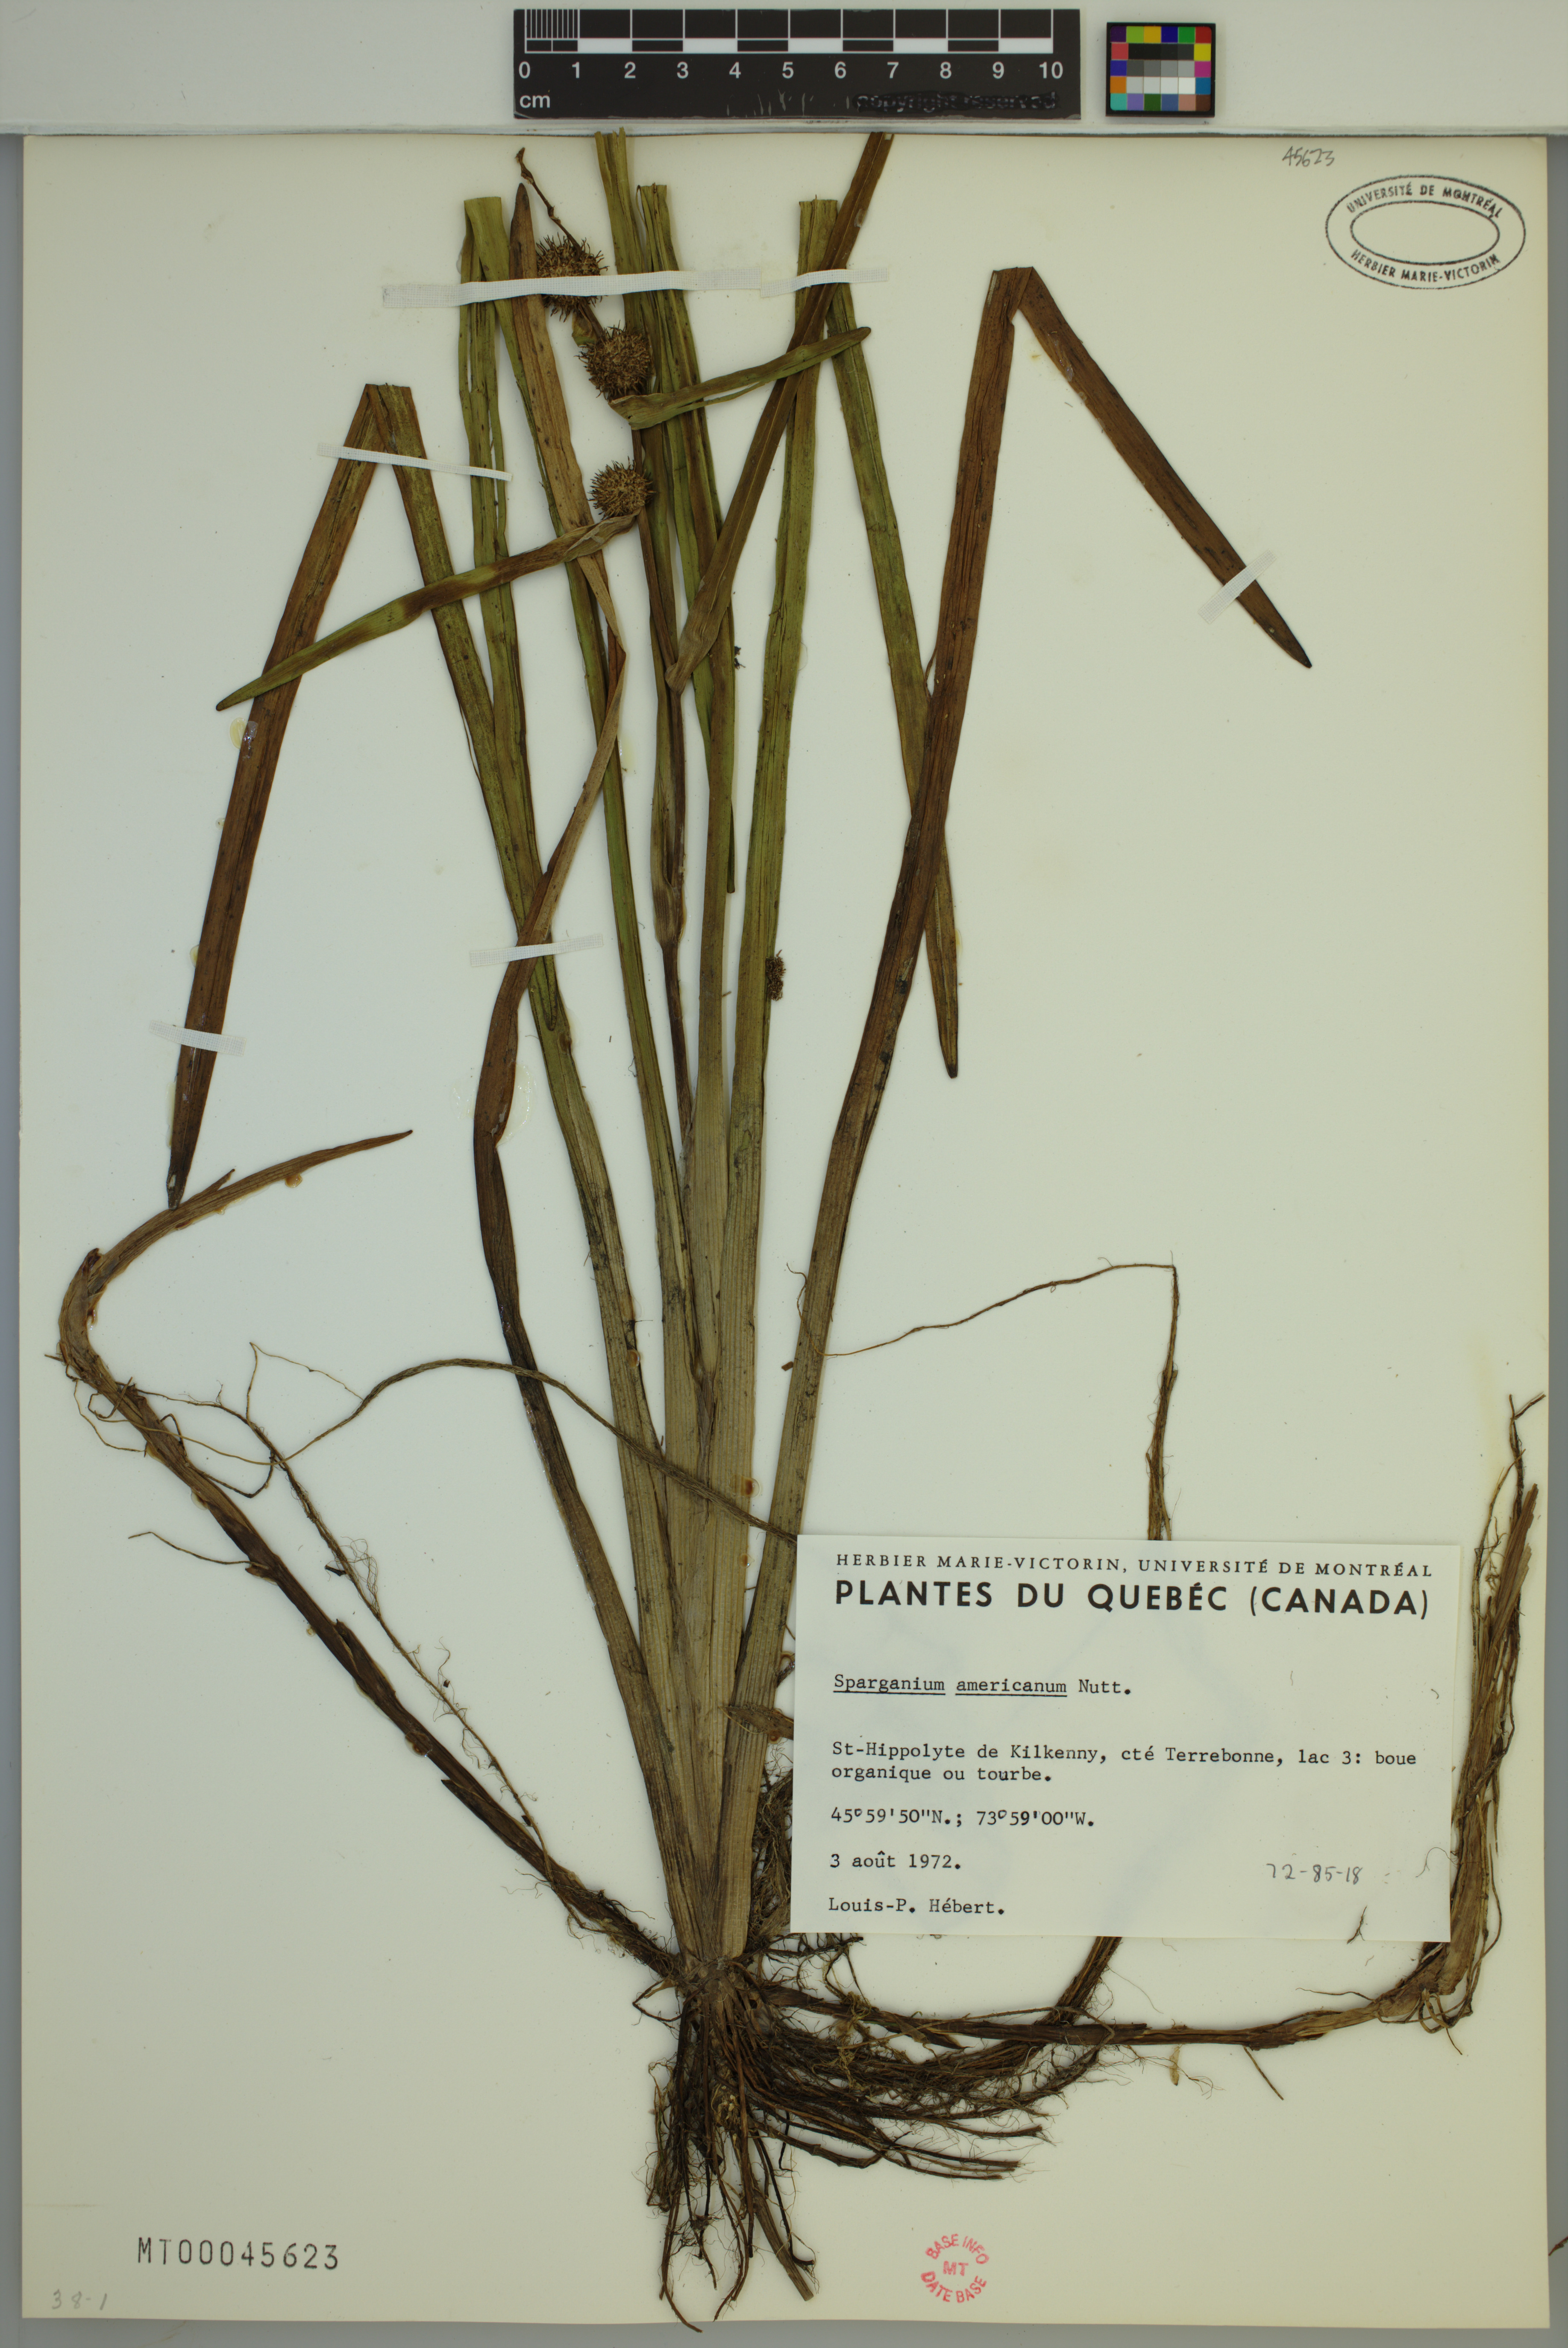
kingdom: Plantae
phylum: Tracheophyta
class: Liliopsida
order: Poales
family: Typhaceae
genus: Sparganium
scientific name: Sparganium americanum
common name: American burreed
